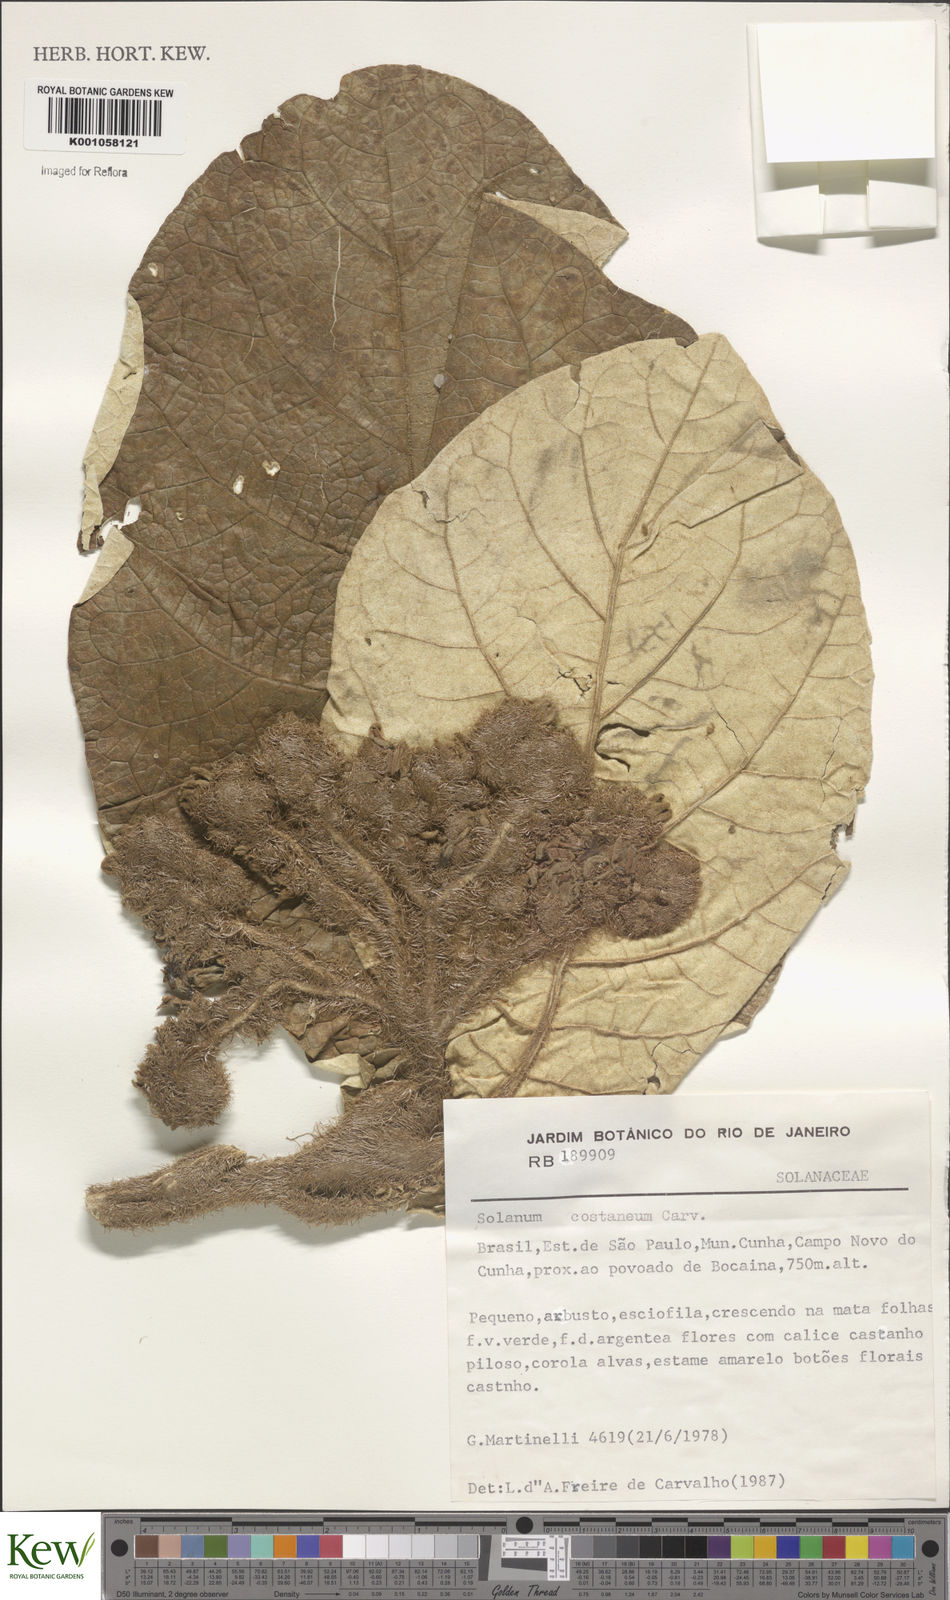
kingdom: Plantae
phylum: Tracheophyta
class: Magnoliopsida
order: Solanales
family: Solanaceae
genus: Solanum
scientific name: Solanum castaneum
